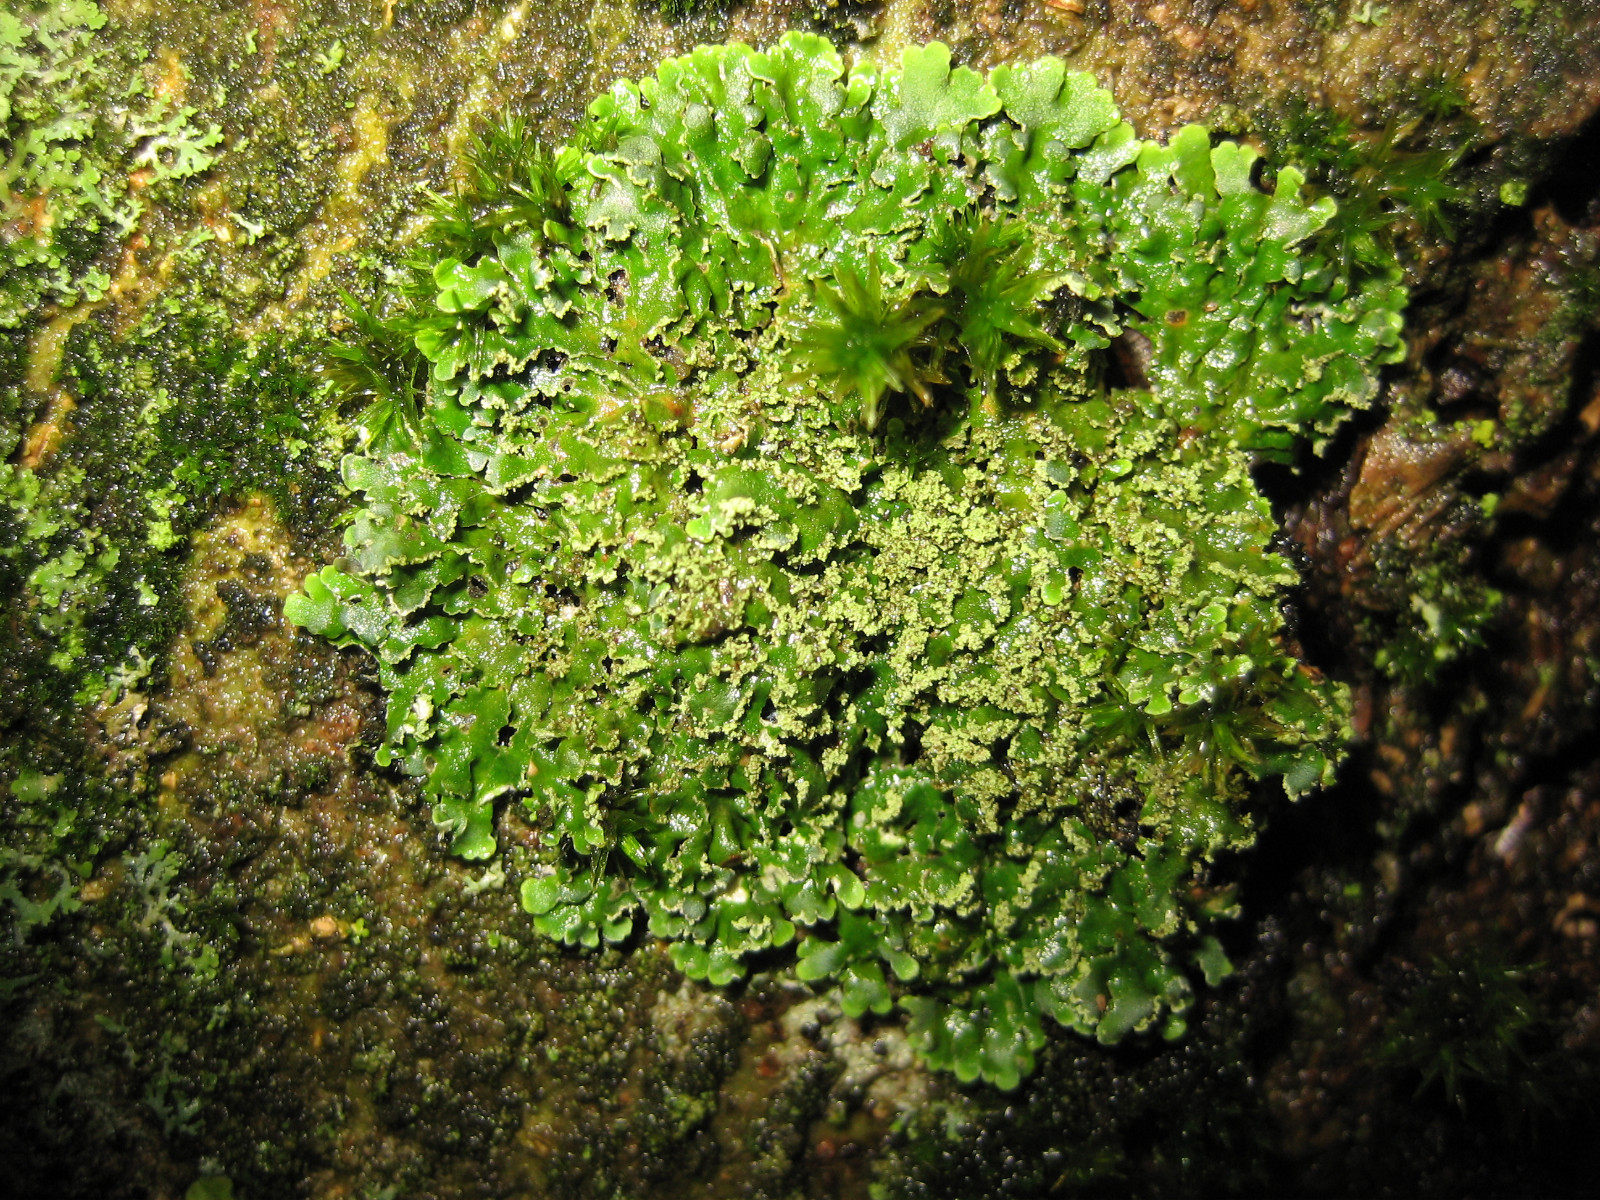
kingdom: Fungi
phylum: Ascomycota
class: Lecanoromycetes
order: Caliciales
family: Physciaceae
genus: Physconia
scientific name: Physconia
